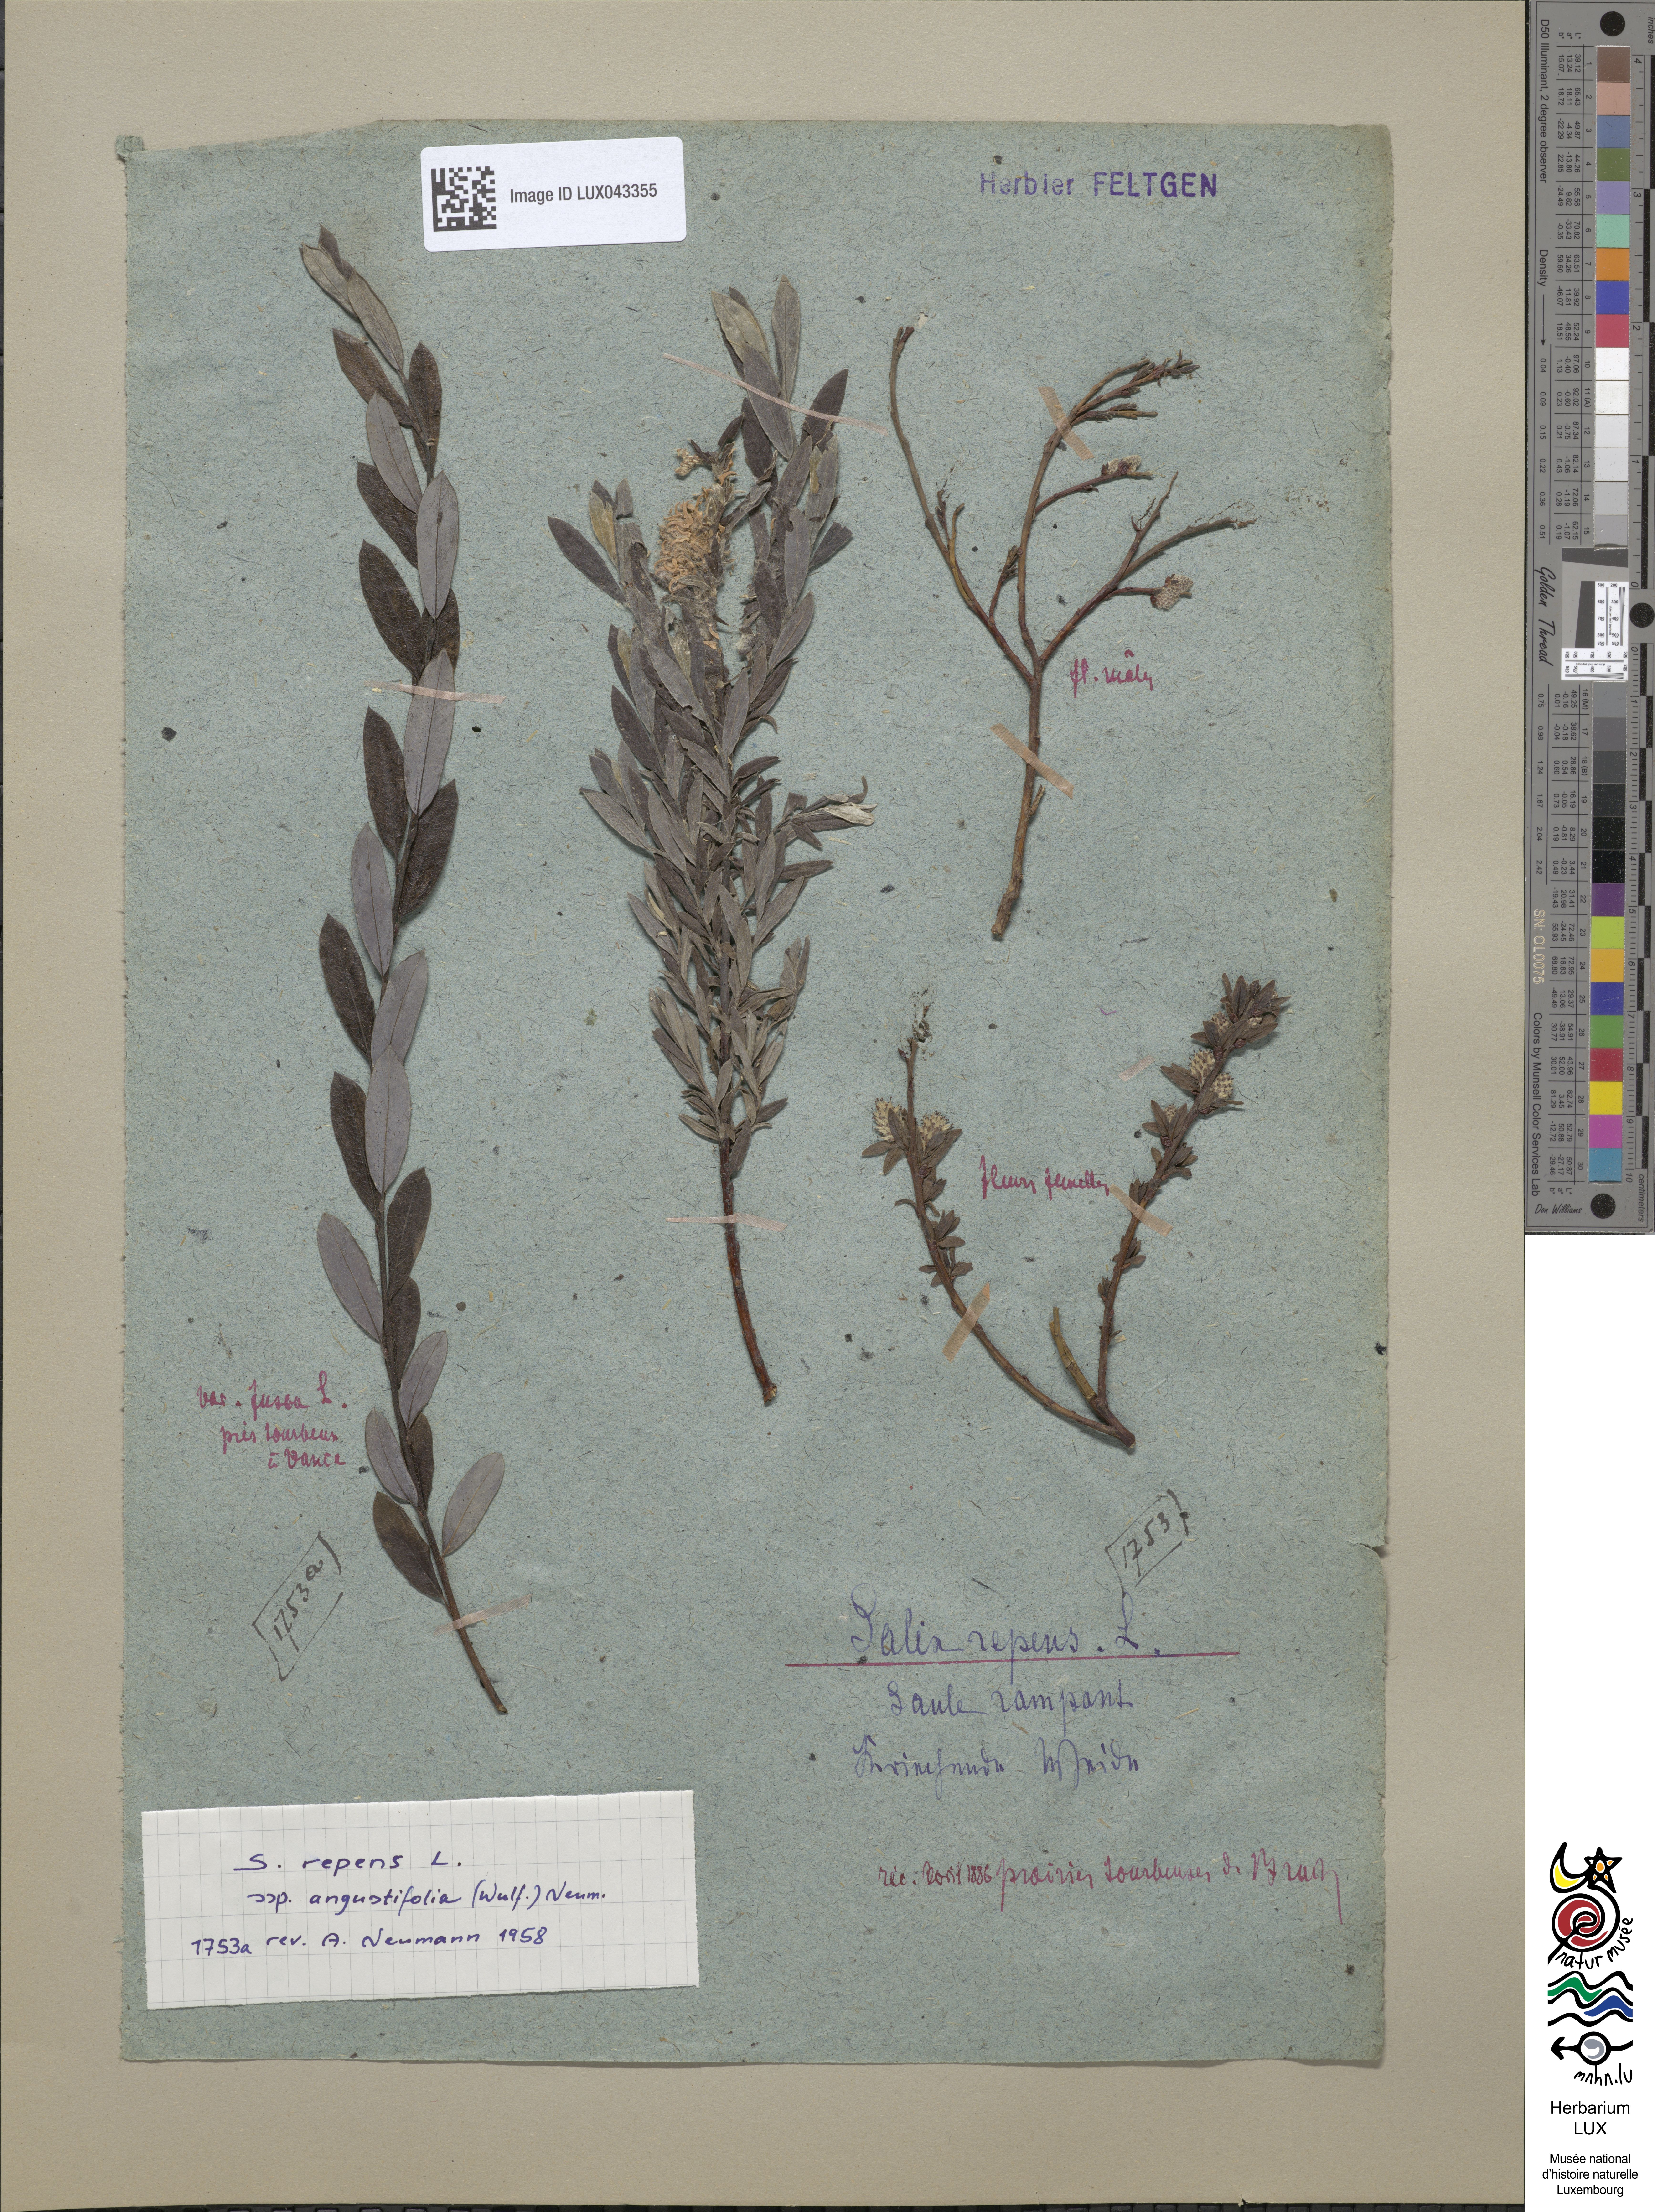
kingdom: Plantae
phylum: Tracheophyta
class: Magnoliopsida
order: Malpighiales
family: Salicaceae
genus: Salix
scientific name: Salix rosmarinifolia
